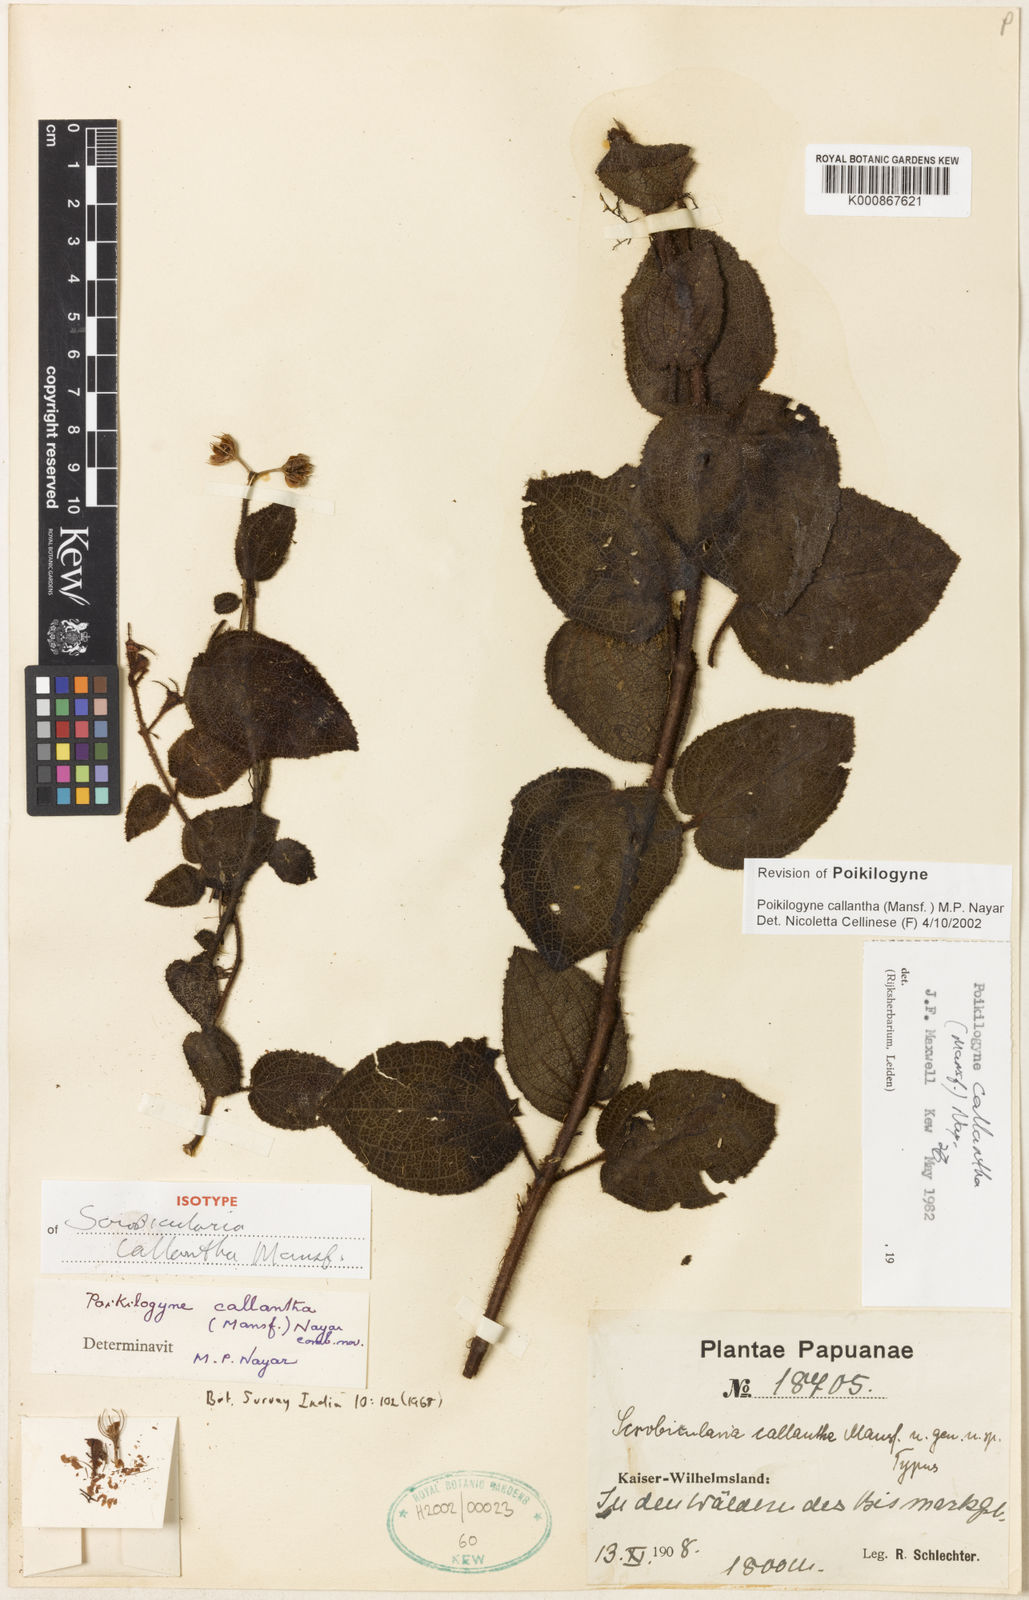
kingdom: Plantae
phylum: Tracheophyta
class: Magnoliopsida
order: Myrtales
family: Melastomataceae
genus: Poikilogyne
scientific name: Poikilogyne callantha
